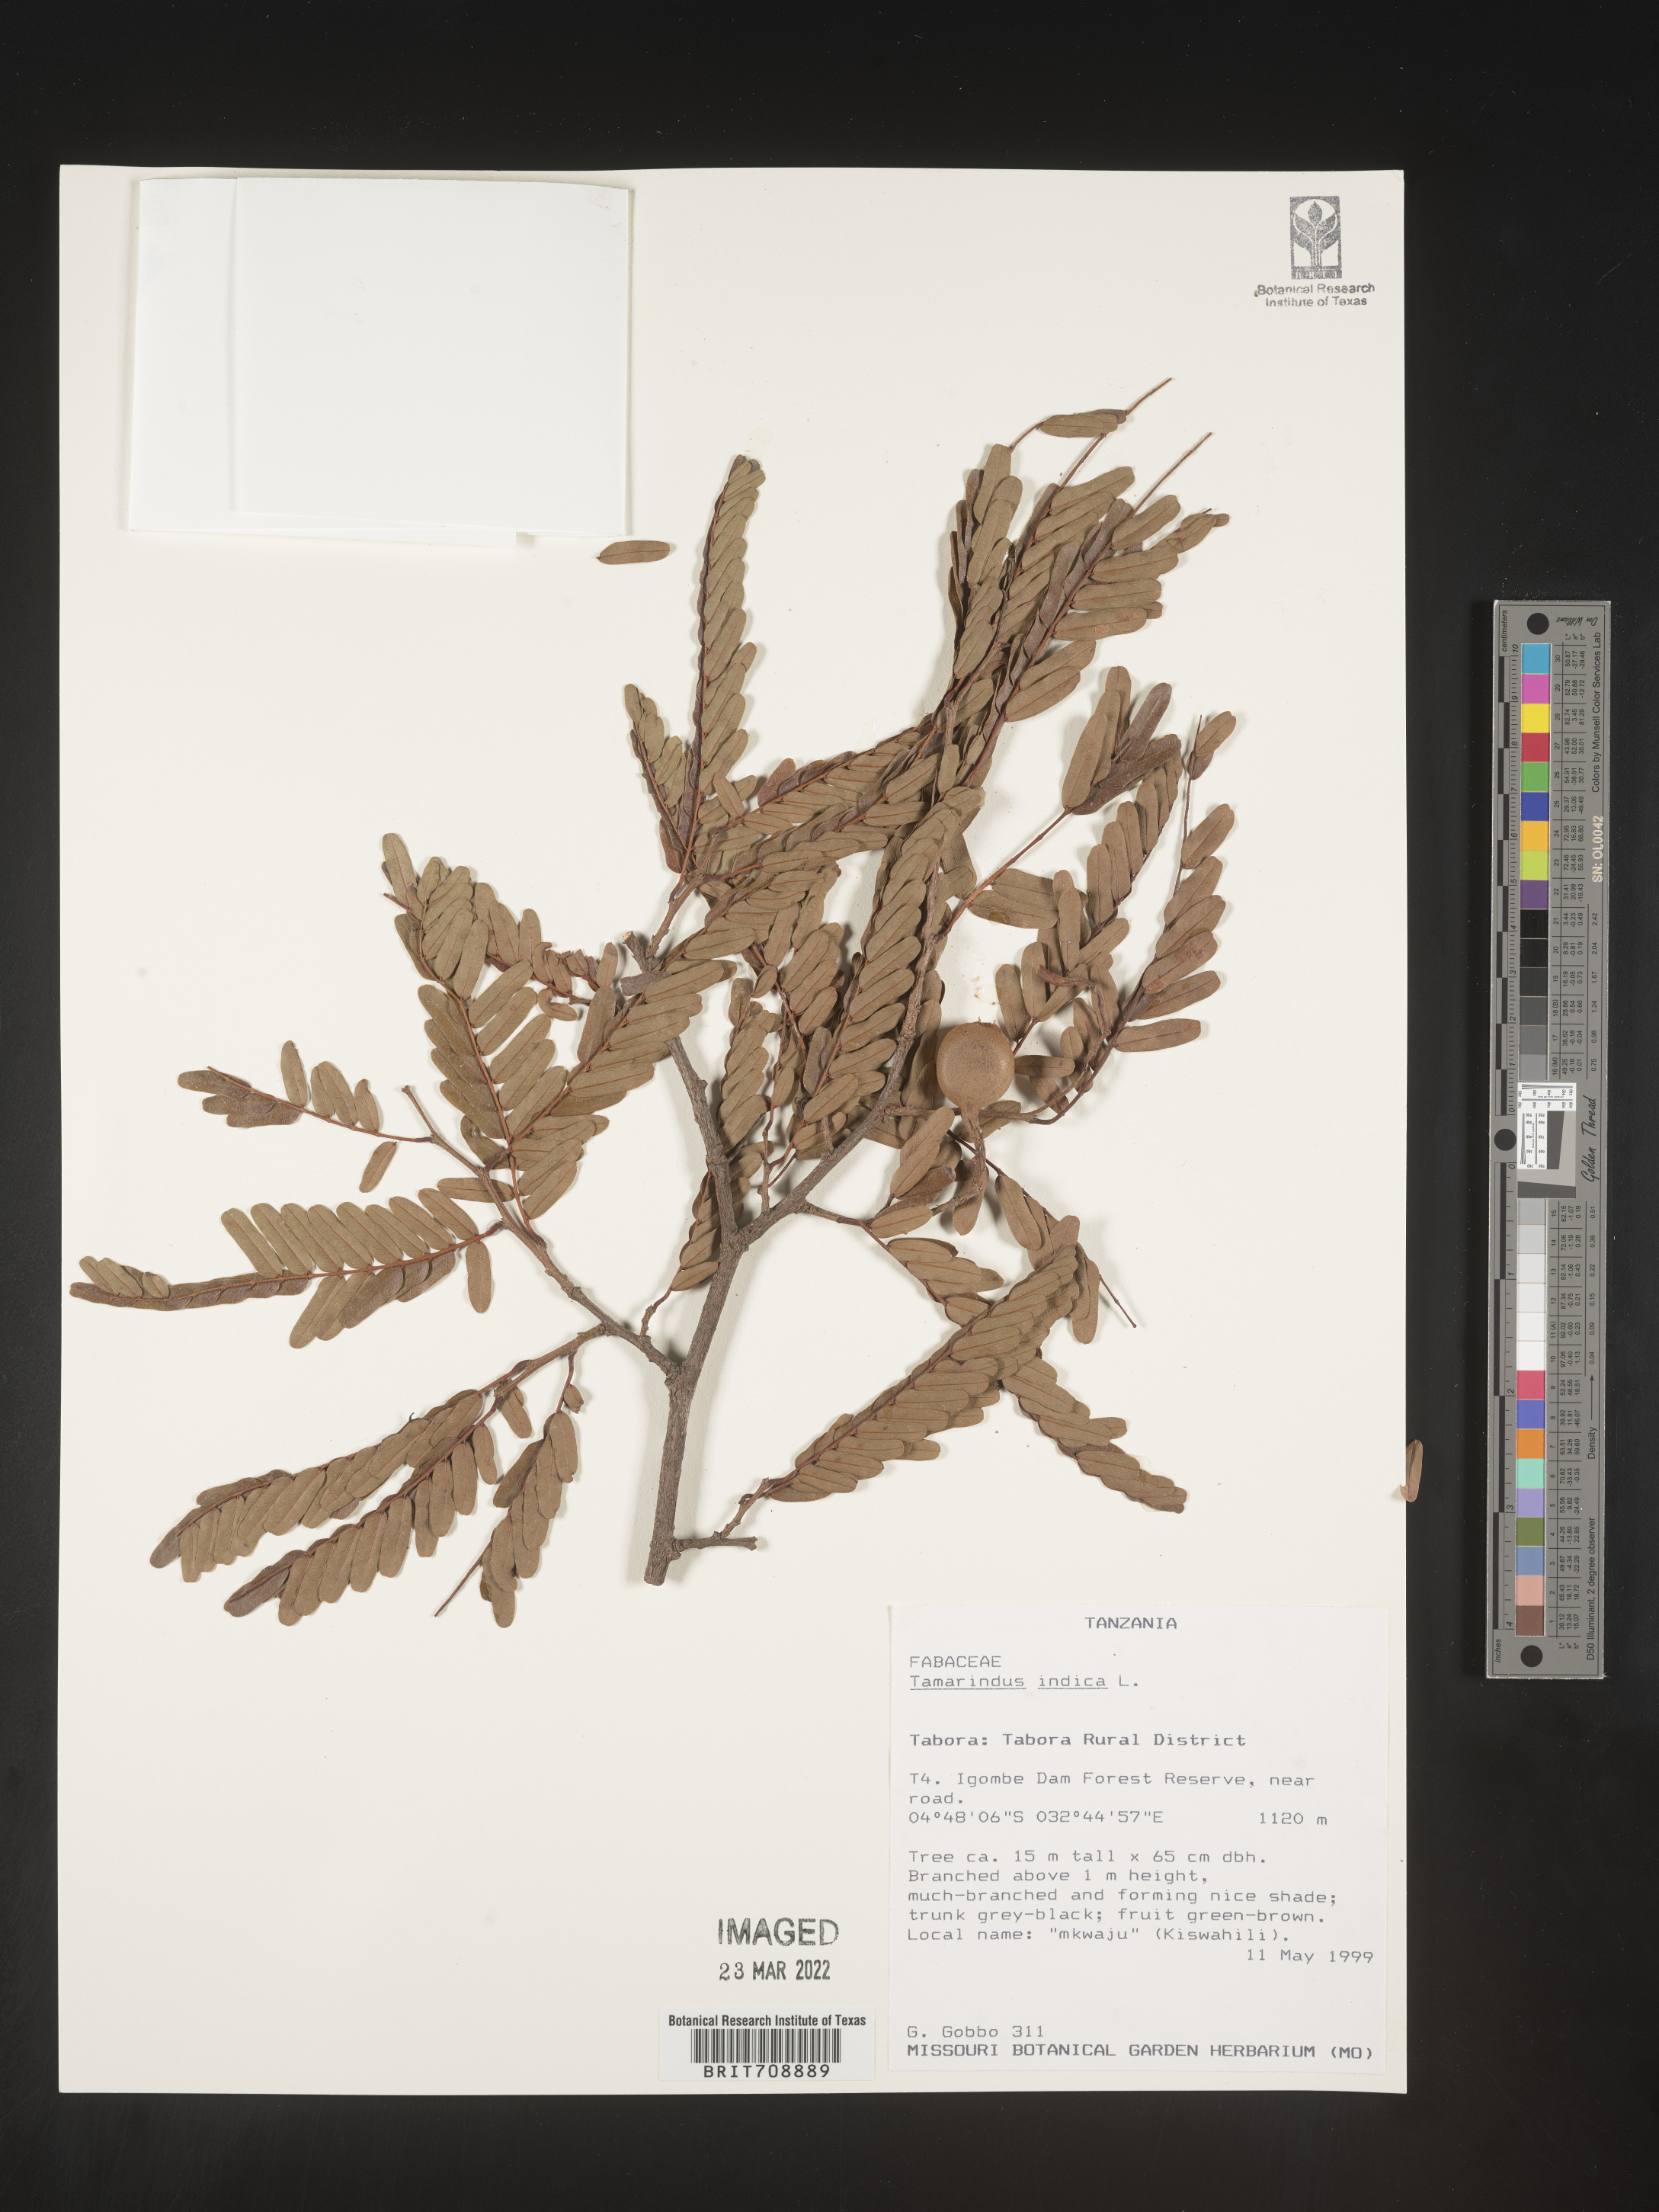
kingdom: Plantae
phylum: Tracheophyta
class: Magnoliopsida
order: Fabales
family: Fabaceae
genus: Tamarindus
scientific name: Tamarindus
